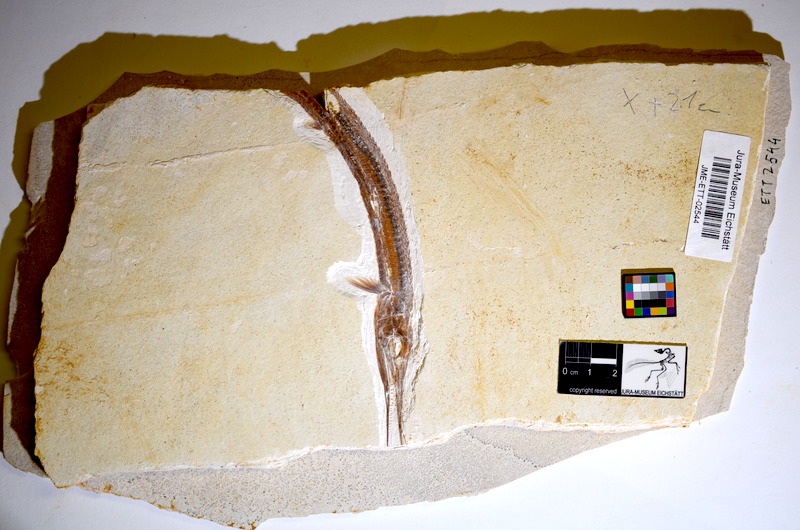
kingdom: Animalia
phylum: Chordata
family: Aspidorhynchidae
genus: Belonostomus
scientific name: Belonostomus kochii
